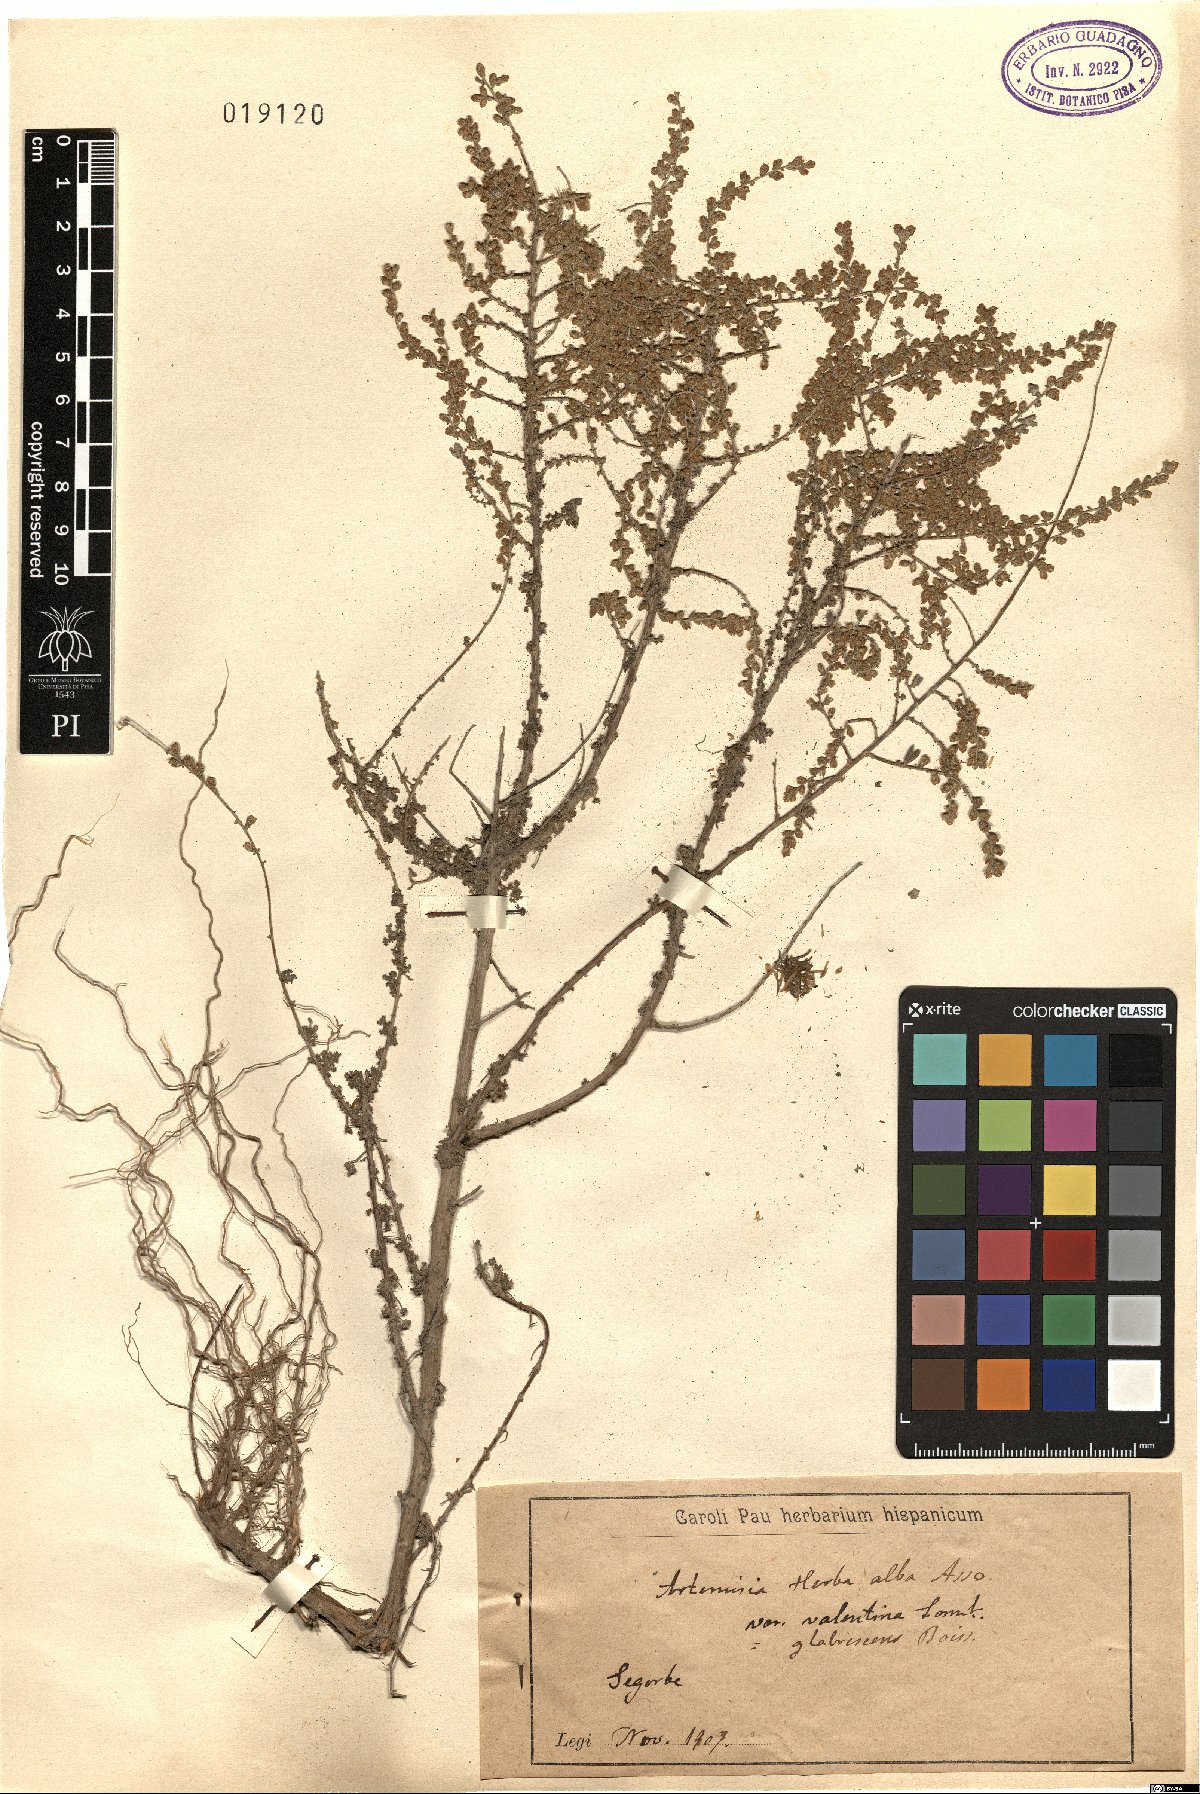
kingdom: Plantae
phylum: Tracheophyta
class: Magnoliopsida
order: Asterales
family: Asteraceae
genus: Artemisia
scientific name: Artemisia herba-alba
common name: White wormwood
